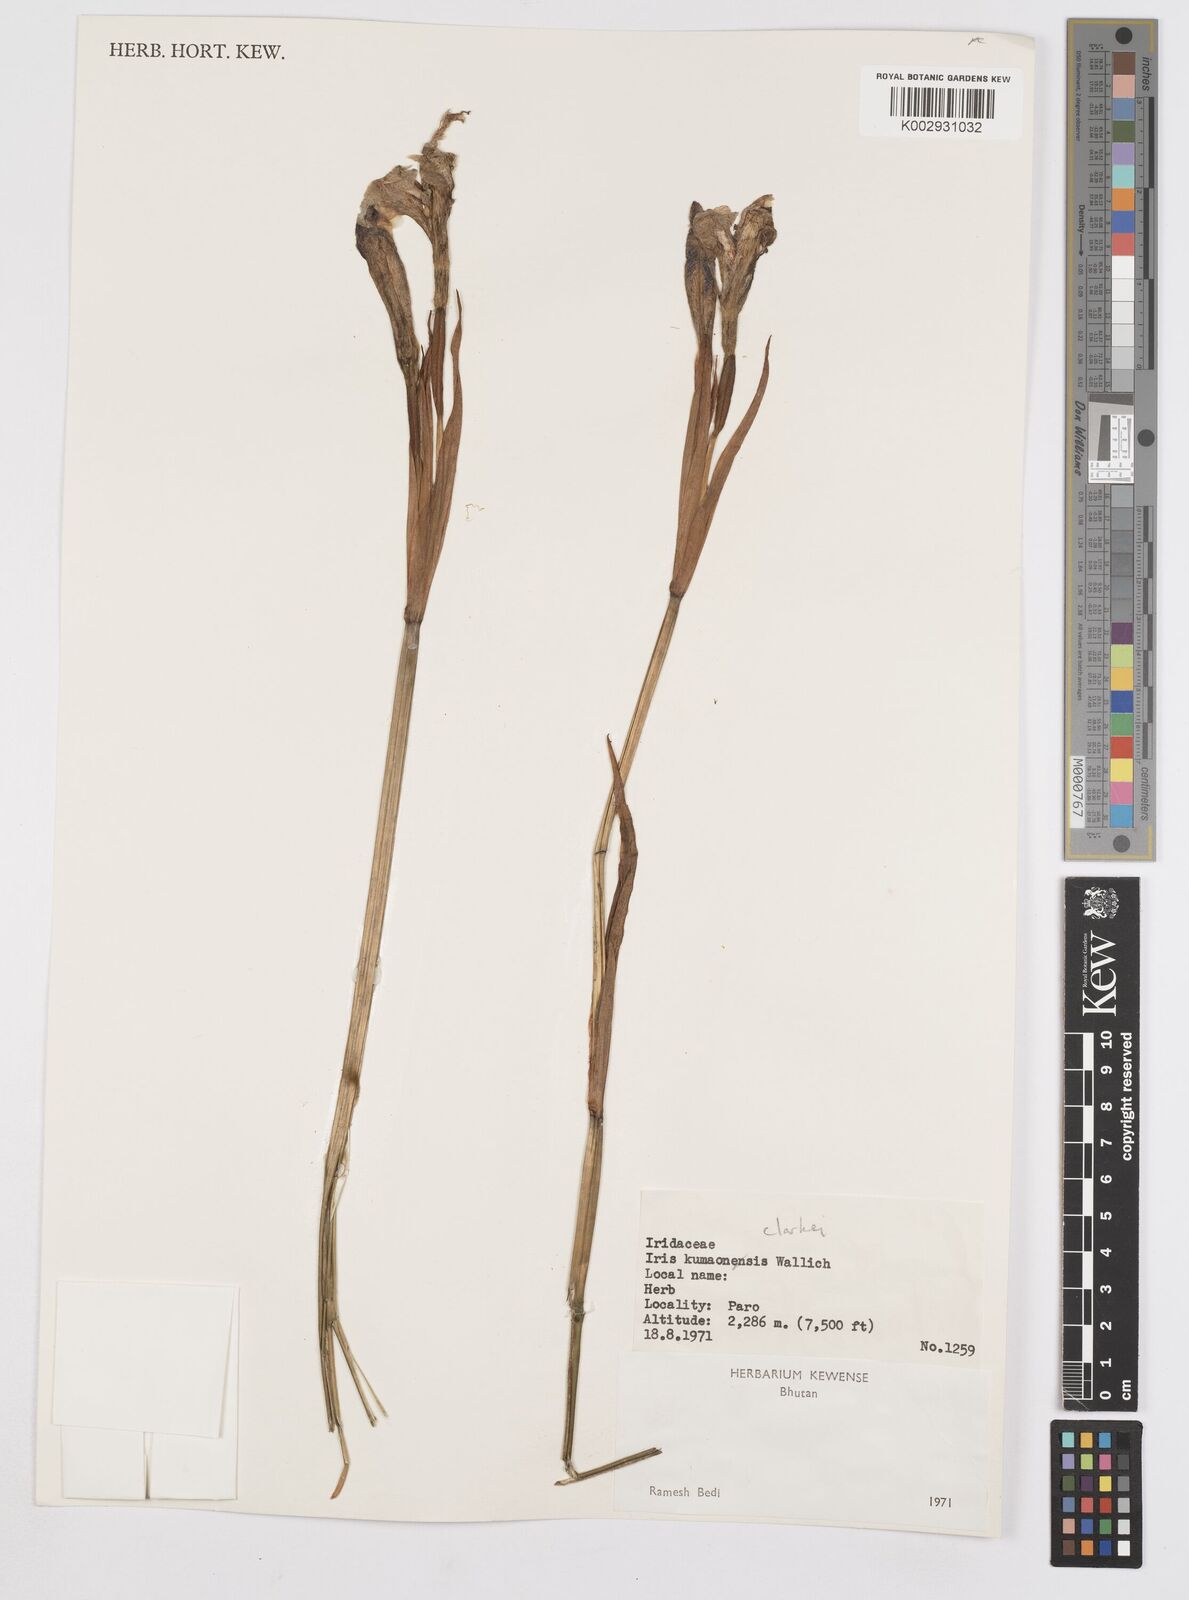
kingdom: Plantae
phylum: Tracheophyta
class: Liliopsida
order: Asparagales
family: Iridaceae
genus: Iris
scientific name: Iris clarkei
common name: Tibet iris
